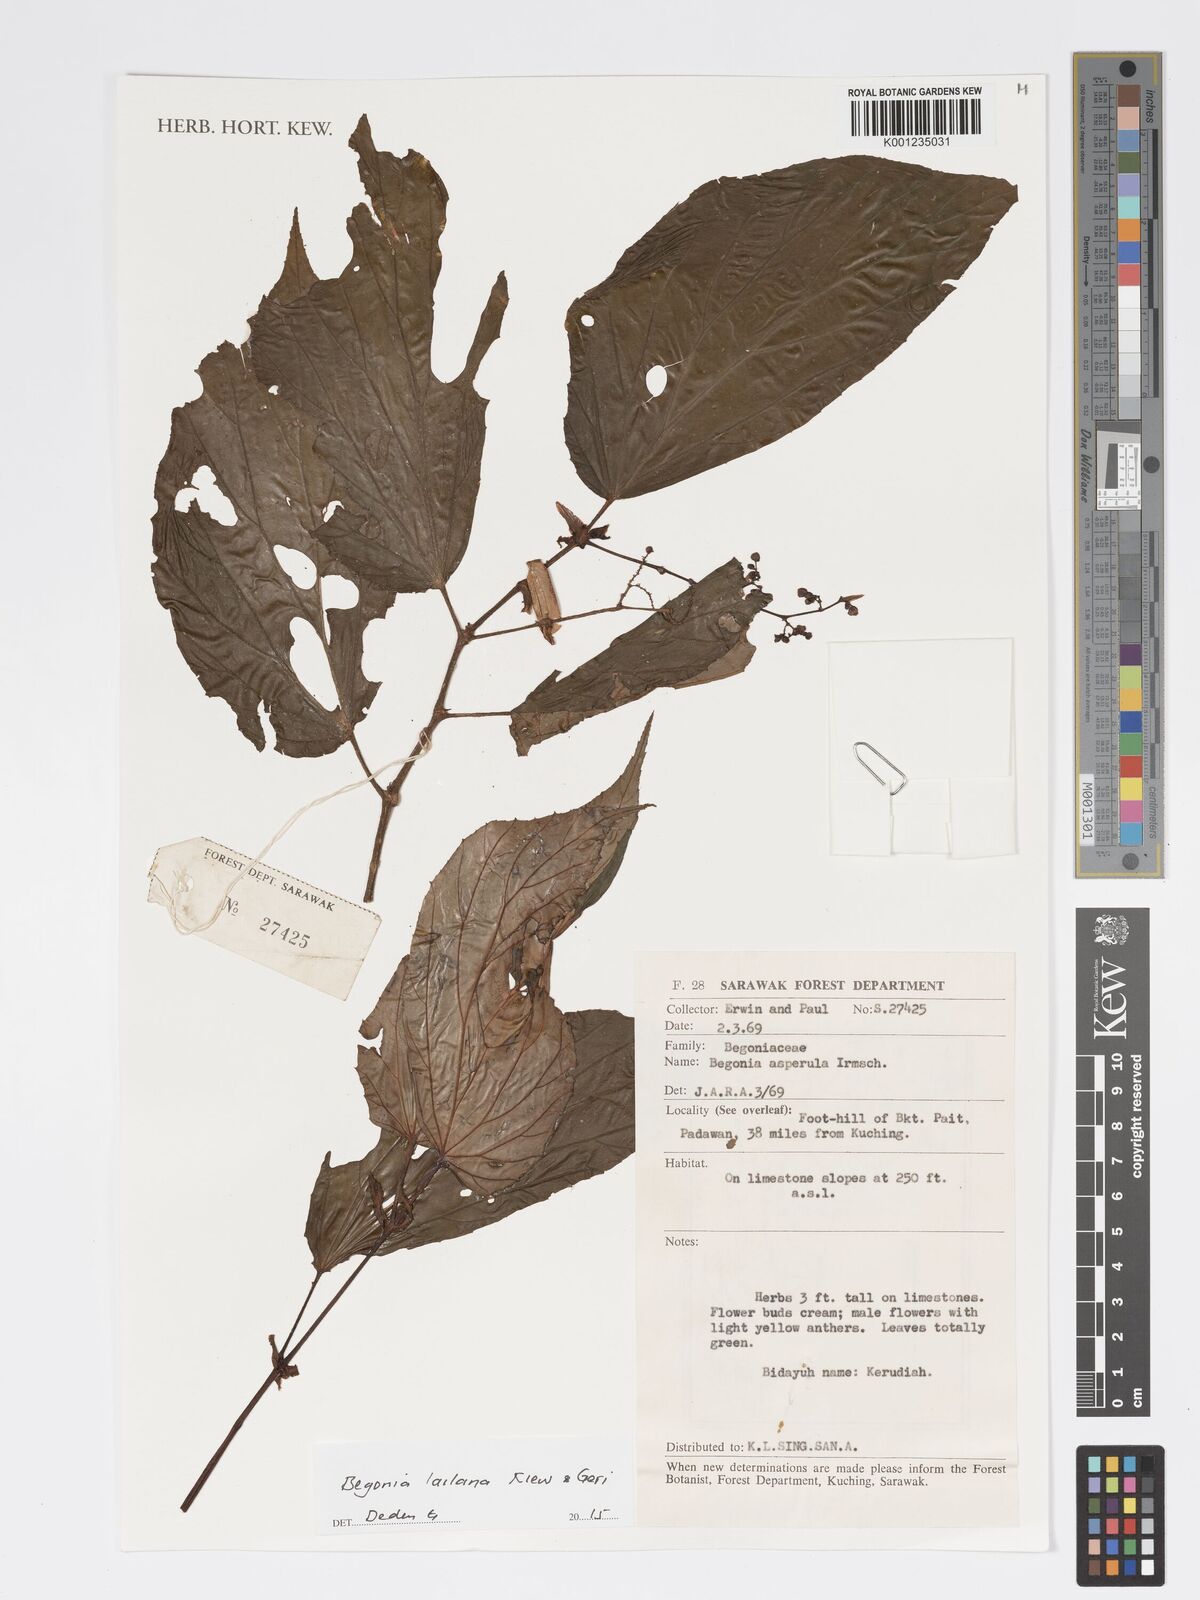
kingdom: Plantae
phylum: Tracheophyta
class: Magnoliopsida
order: Cucurbitales
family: Begoniaceae
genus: Begonia
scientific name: Begonia lailana
